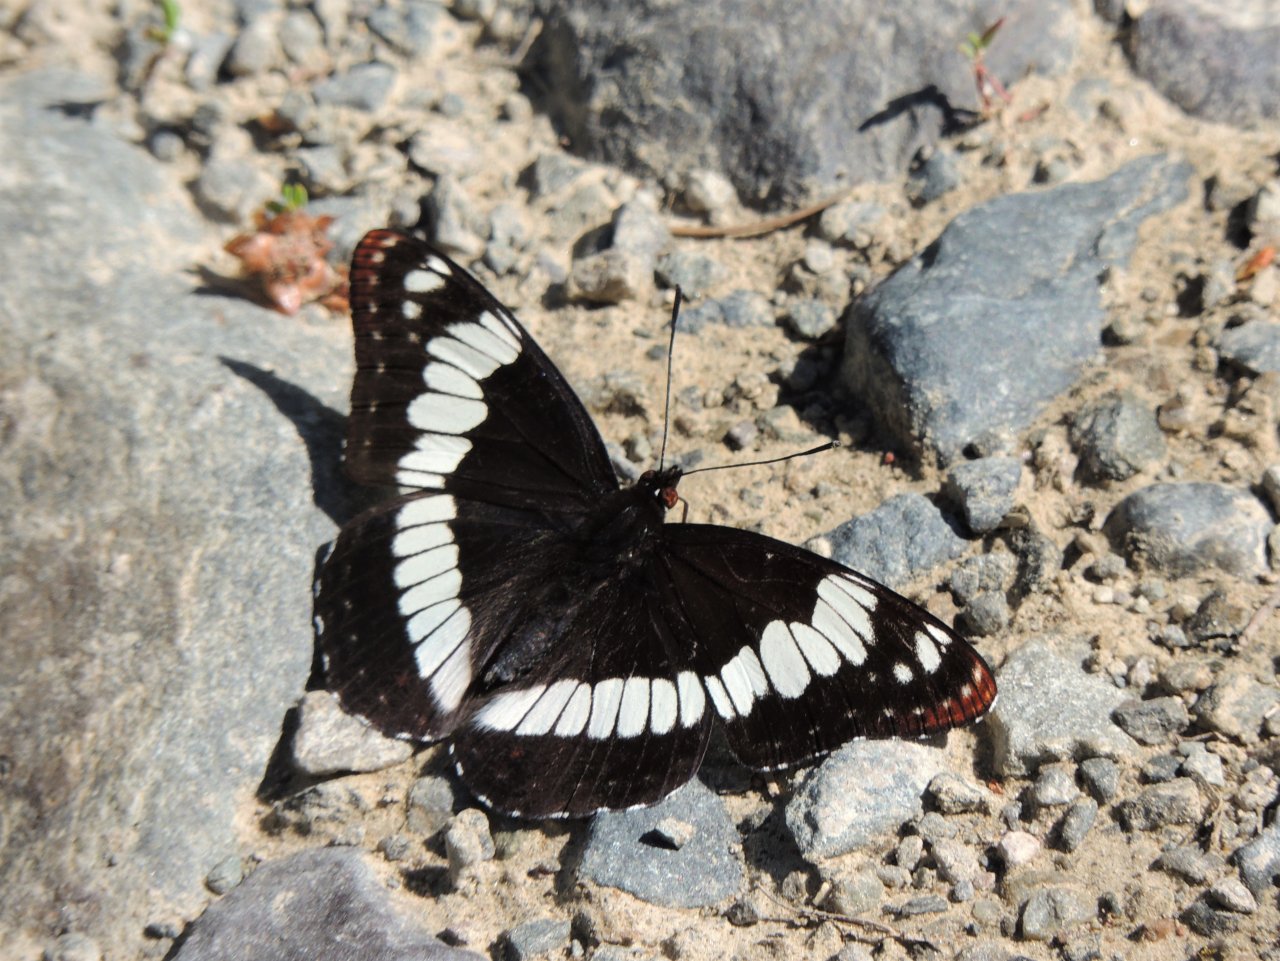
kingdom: Animalia
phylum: Arthropoda
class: Insecta
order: Lepidoptera
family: Nymphalidae
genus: Limenitis
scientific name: Limenitis
